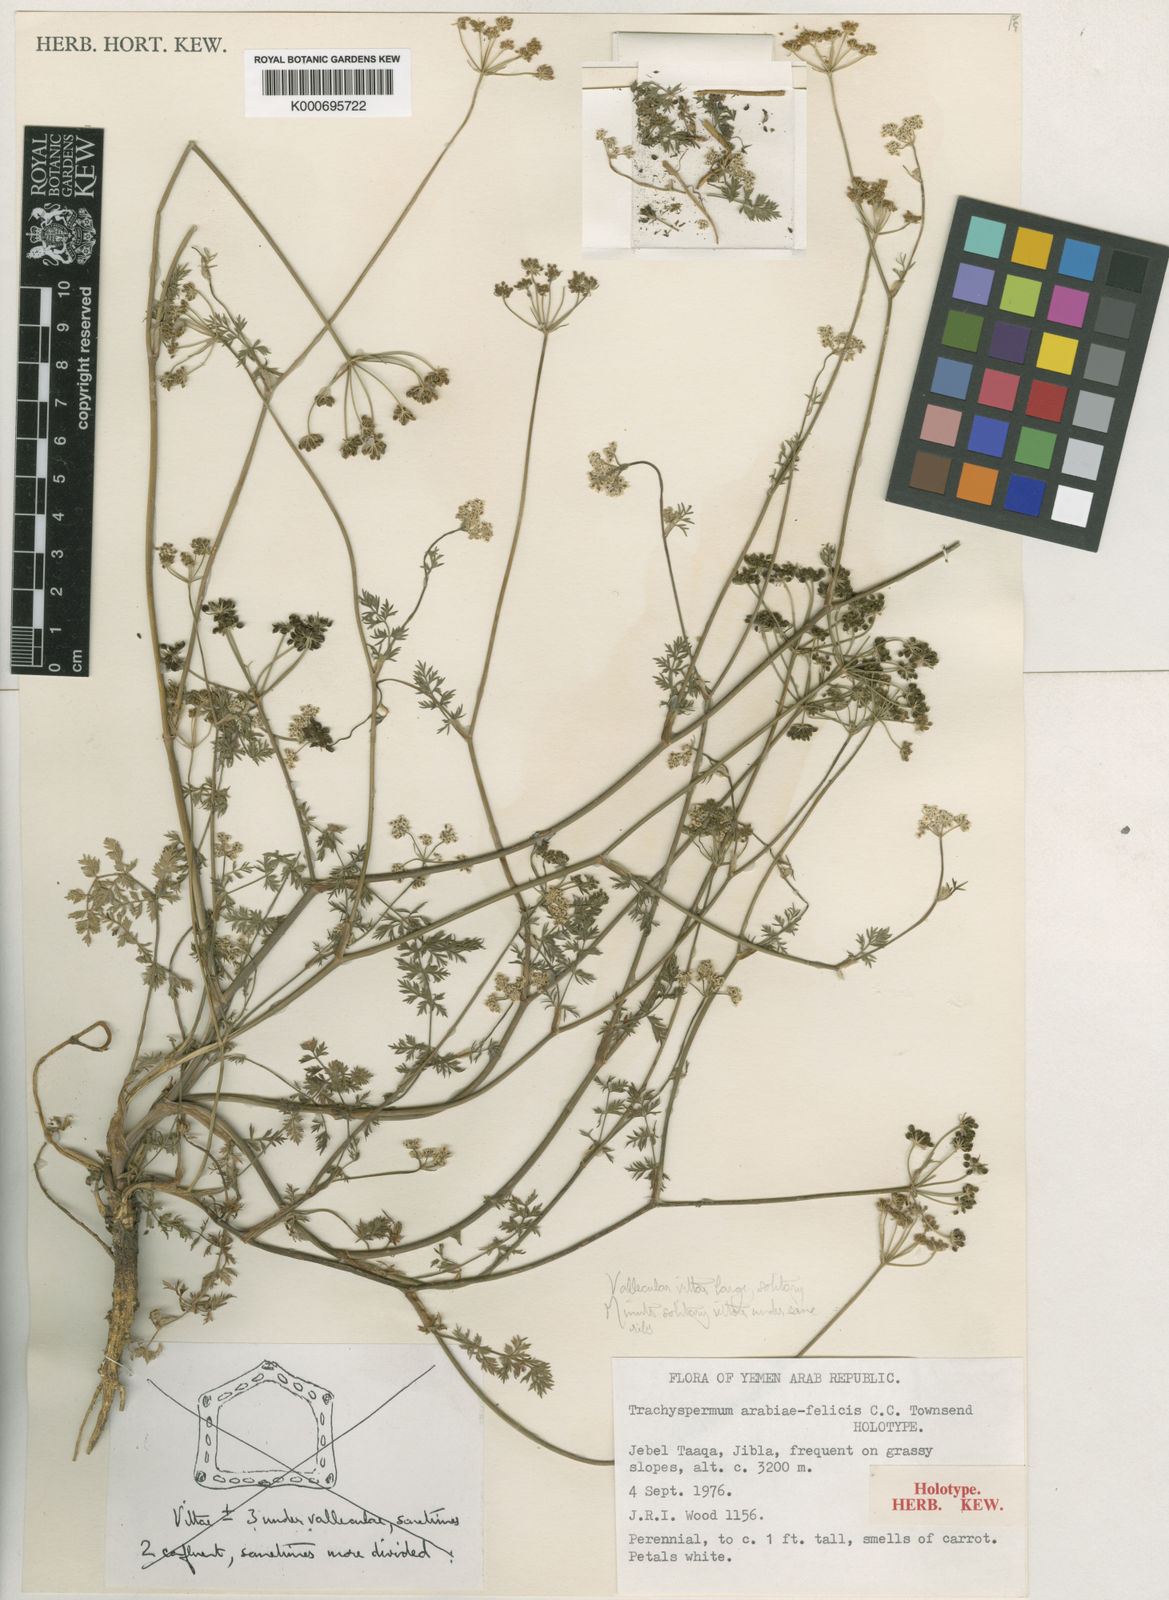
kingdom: Plantae
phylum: Tracheophyta
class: Magnoliopsida
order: Apiales
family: Apiaceae
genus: Oreoschimperella
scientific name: Oreoschimperella arabiae-felicis
